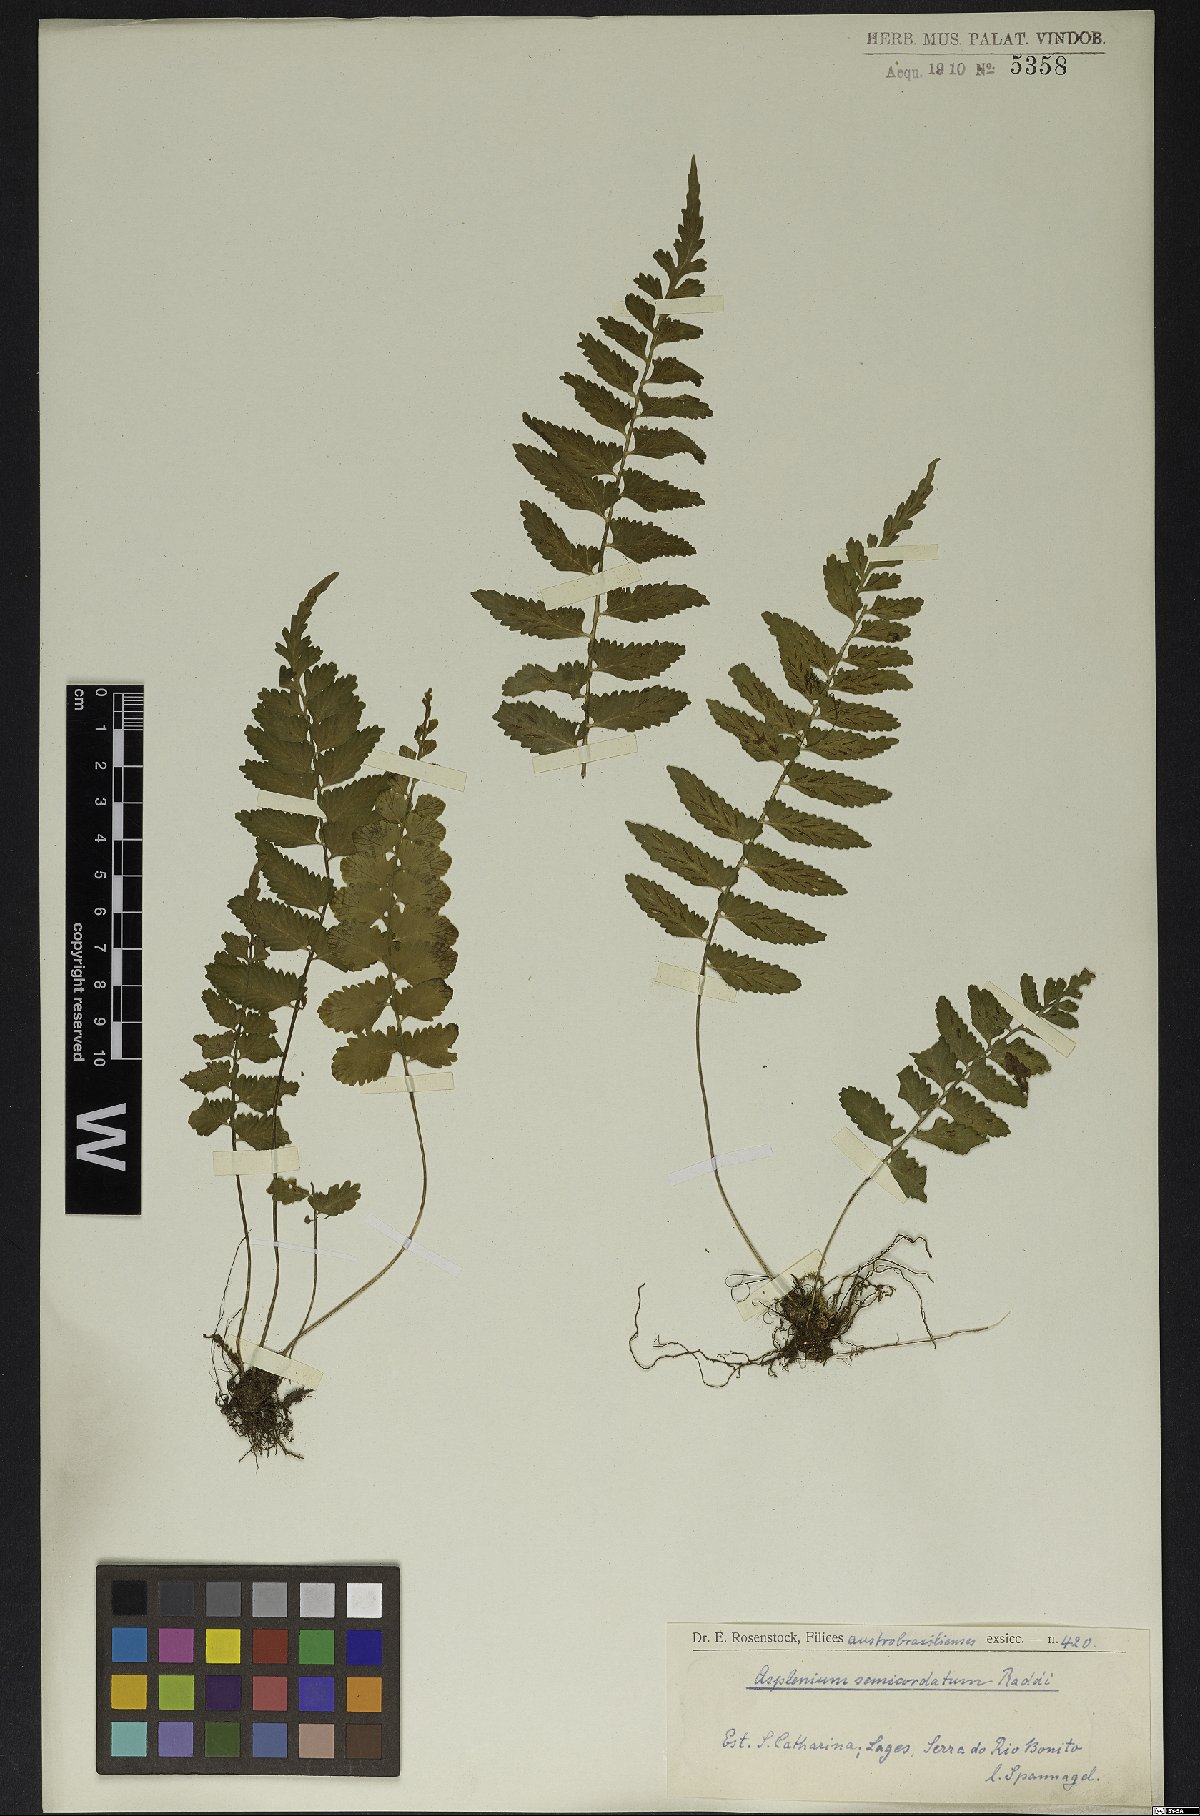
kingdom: Plantae
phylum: Tracheophyta
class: Polypodiopsida
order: Polypodiales
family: Aspleniaceae
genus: Asplenium
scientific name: Asplenium auriculatum
